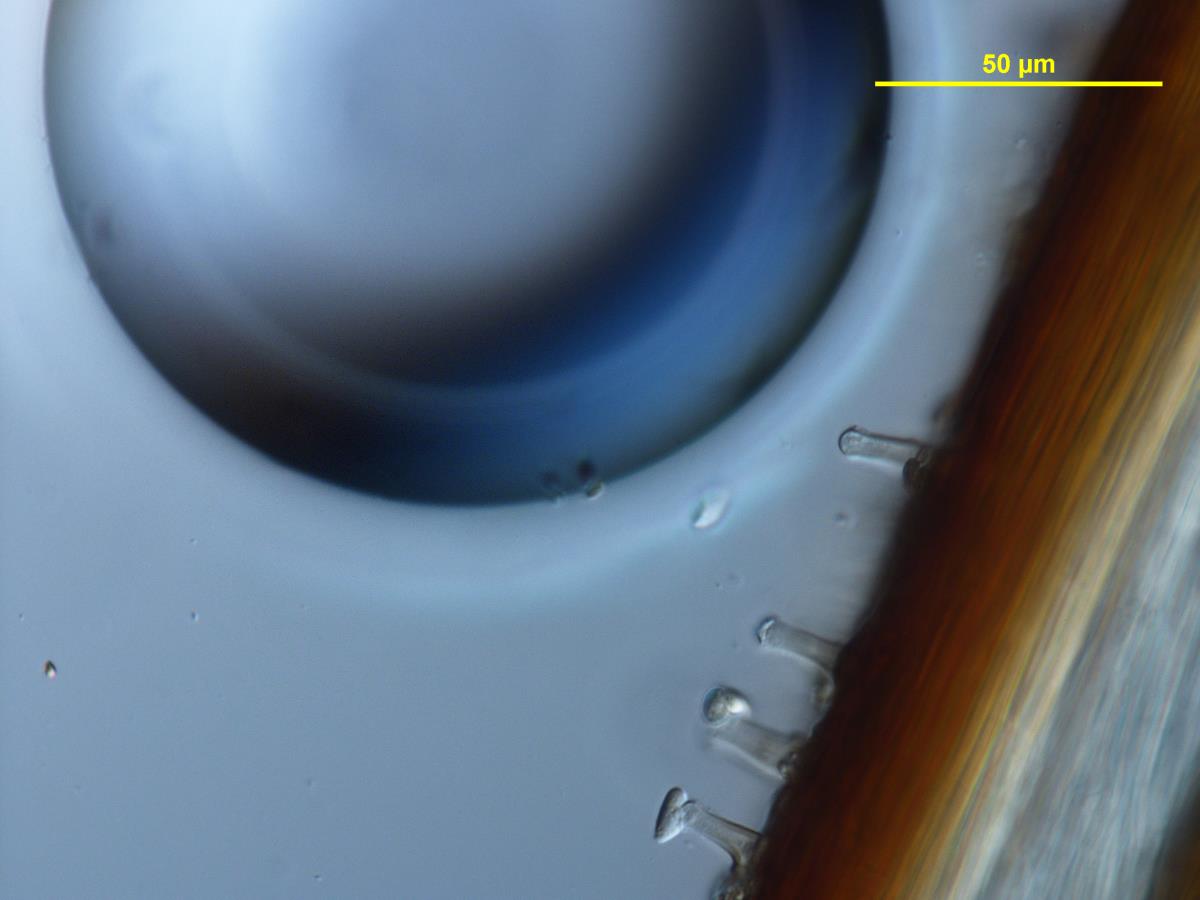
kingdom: Fungi
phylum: Basidiomycota
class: Agaricomycetes
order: Agaricales
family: Physalacriaceae
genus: Cryptomarasmius
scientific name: Cryptomarasmius
